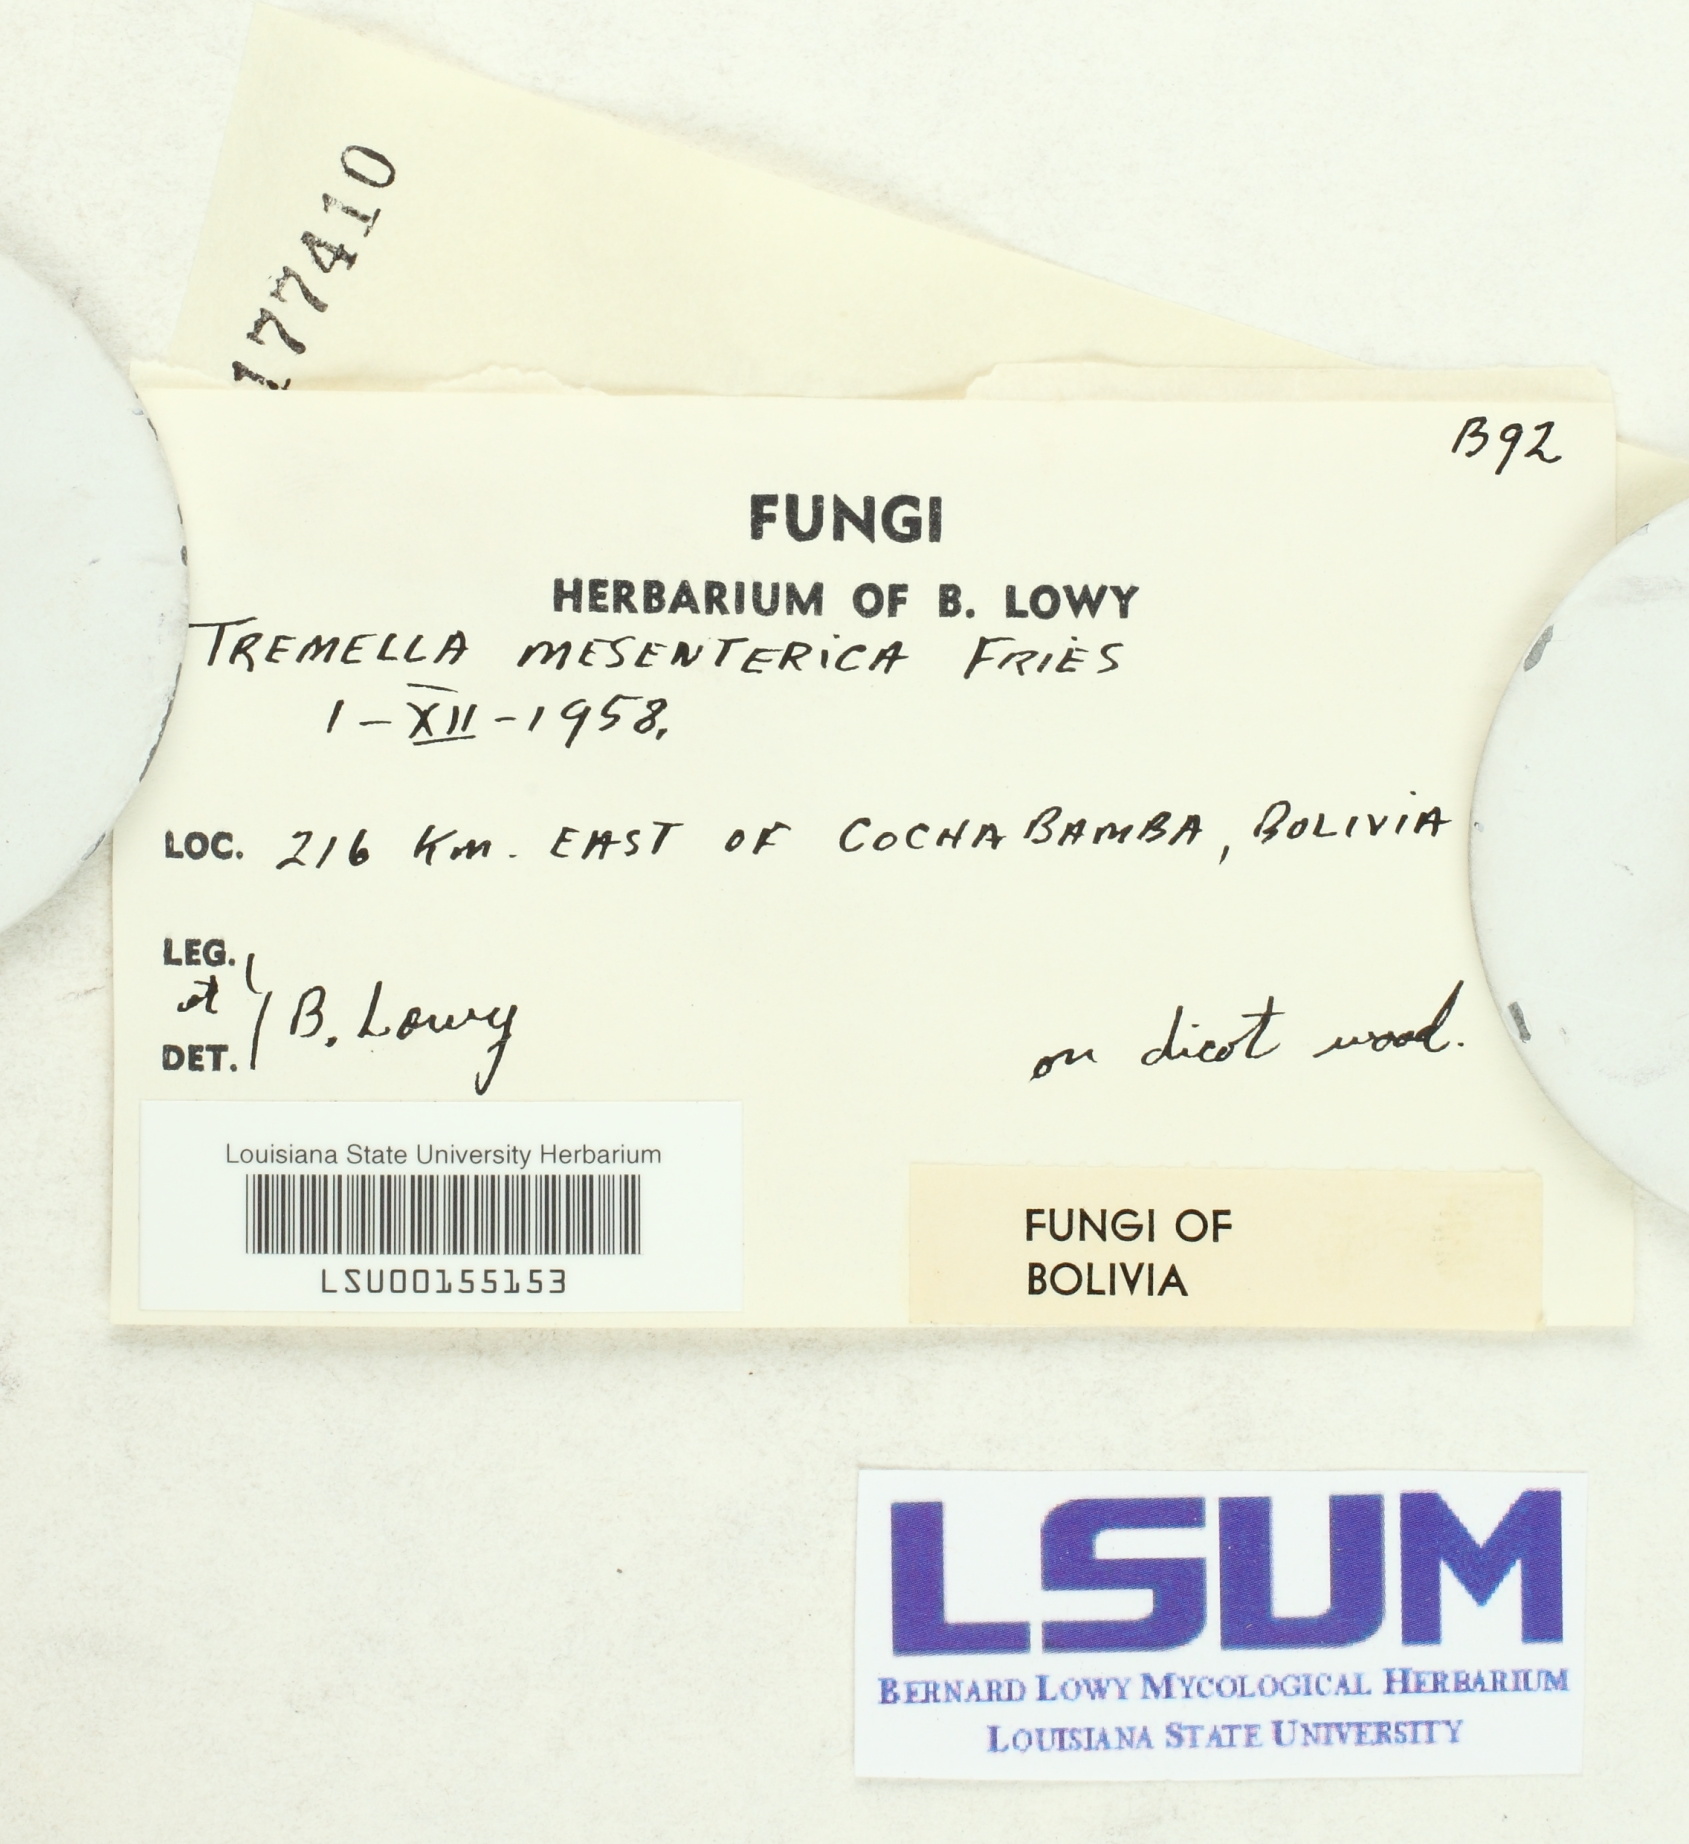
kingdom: Fungi
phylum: Basidiomycota
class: Tremellomycetes
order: Tremellales
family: Tremellaceae
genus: Tremella
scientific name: Tremella mesenterica
